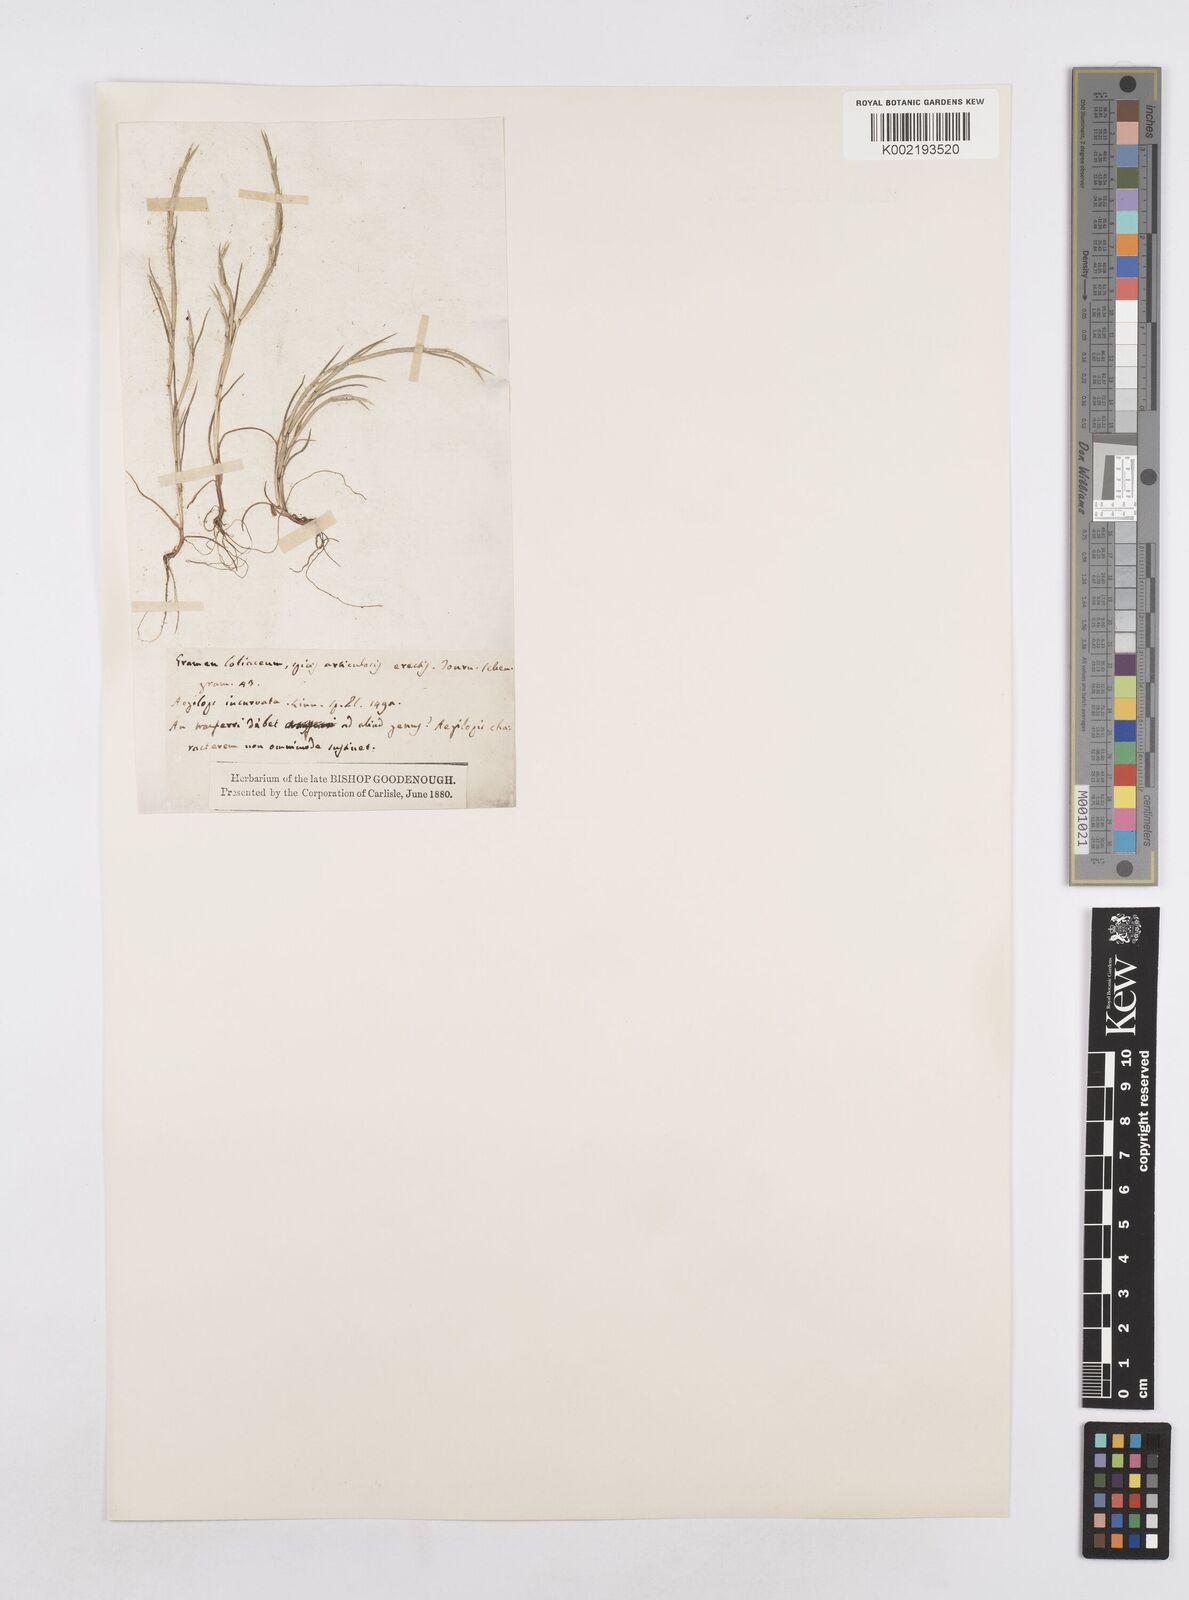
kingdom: Plantae
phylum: Tracheophyta
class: Liliopsida
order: Poales
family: Poaceae
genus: Parapholis
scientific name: Parapholis incurva
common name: Curved sicklegrass
